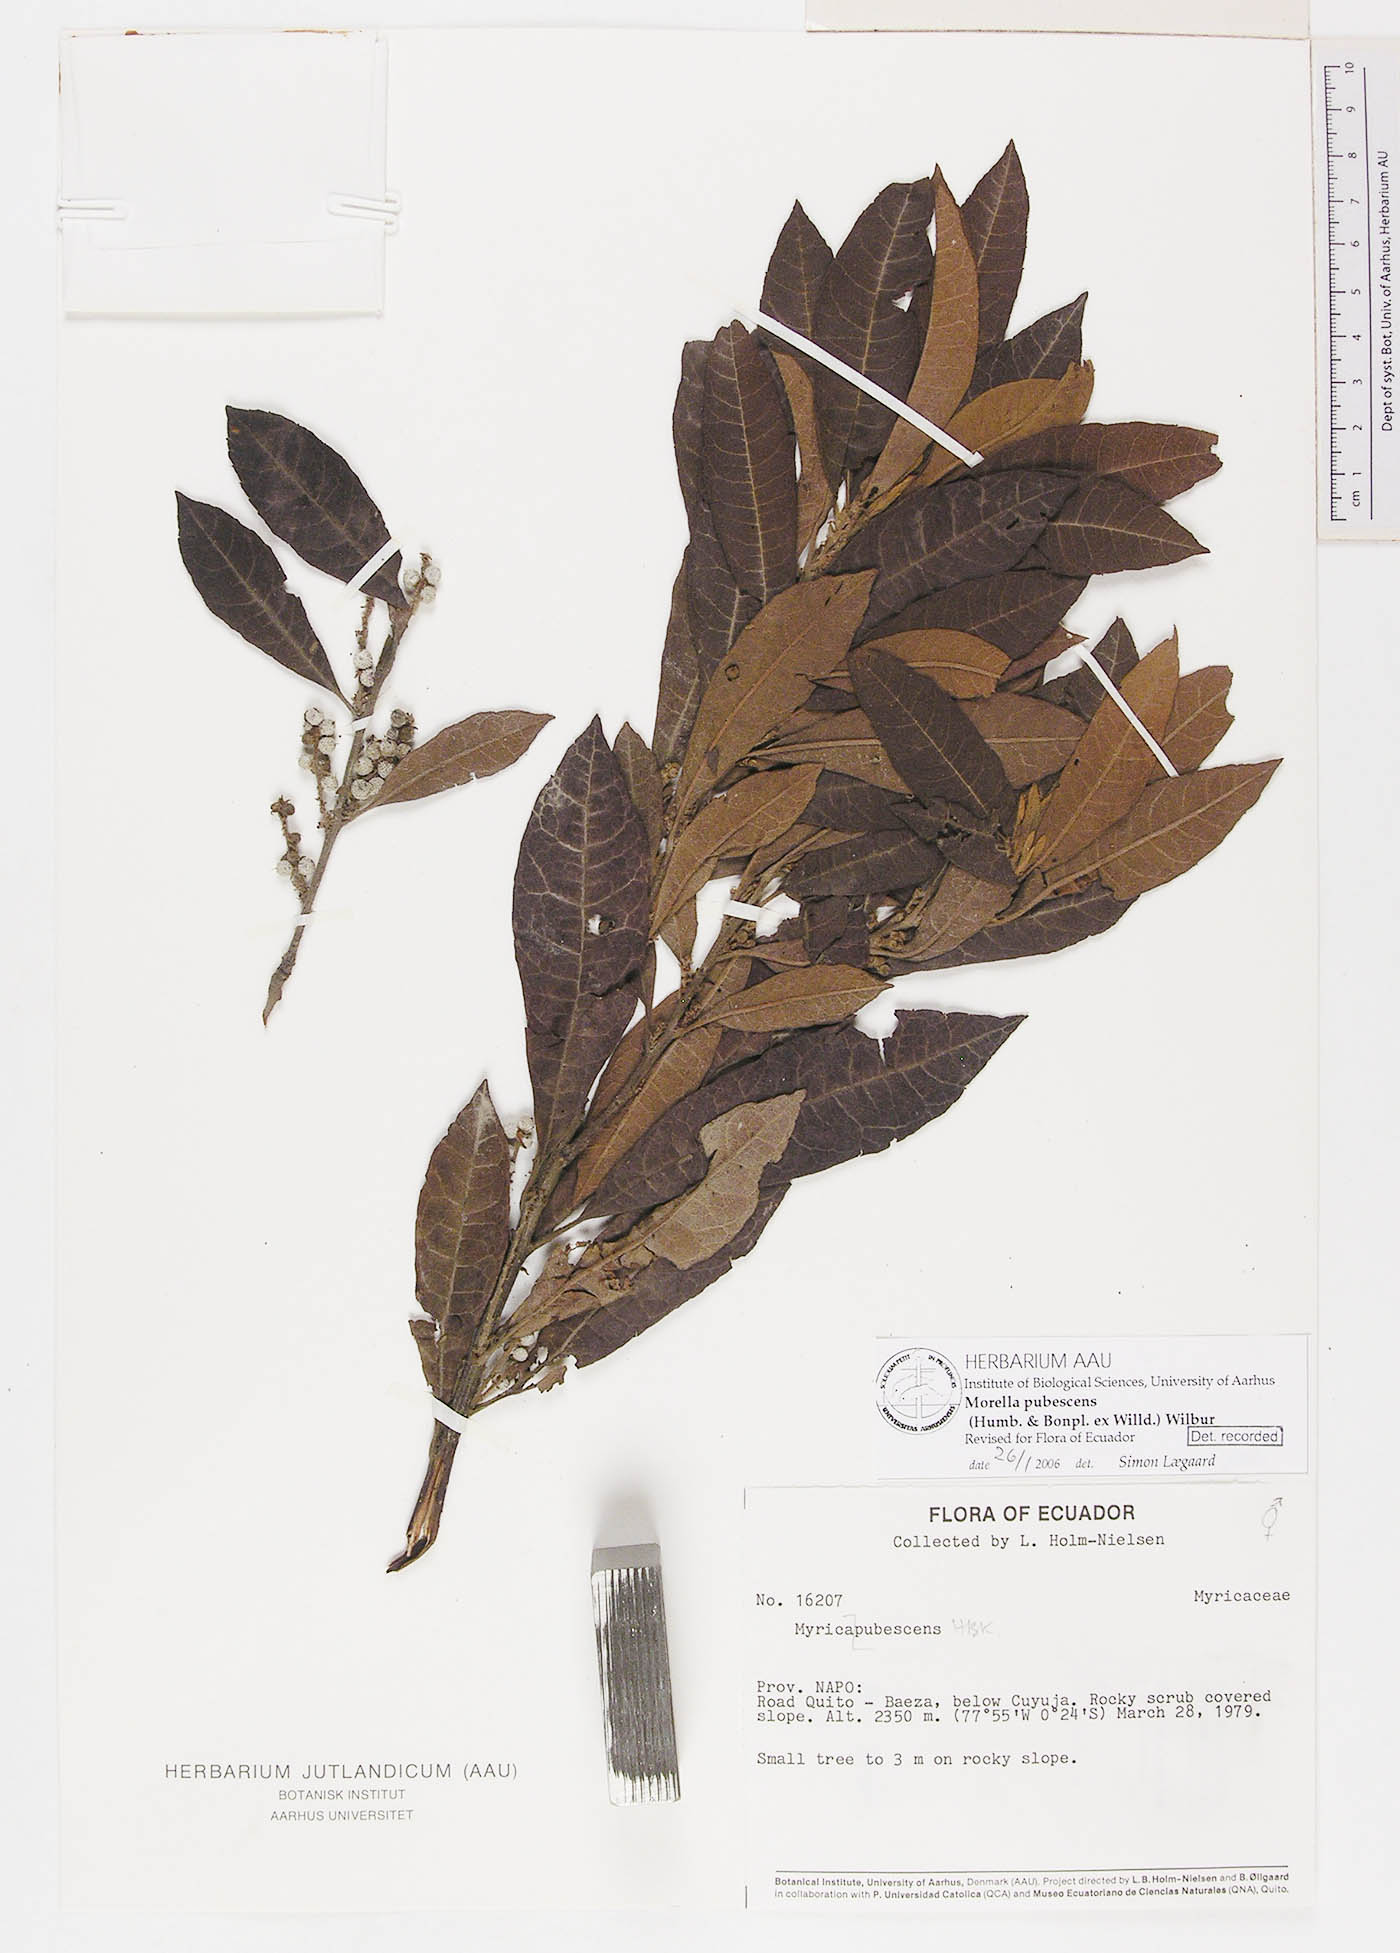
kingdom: Plantae
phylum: Tracheophyta
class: Magnoliopsida
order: Fagales
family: Myricaceae
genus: Morella
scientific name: Morella pubescens
